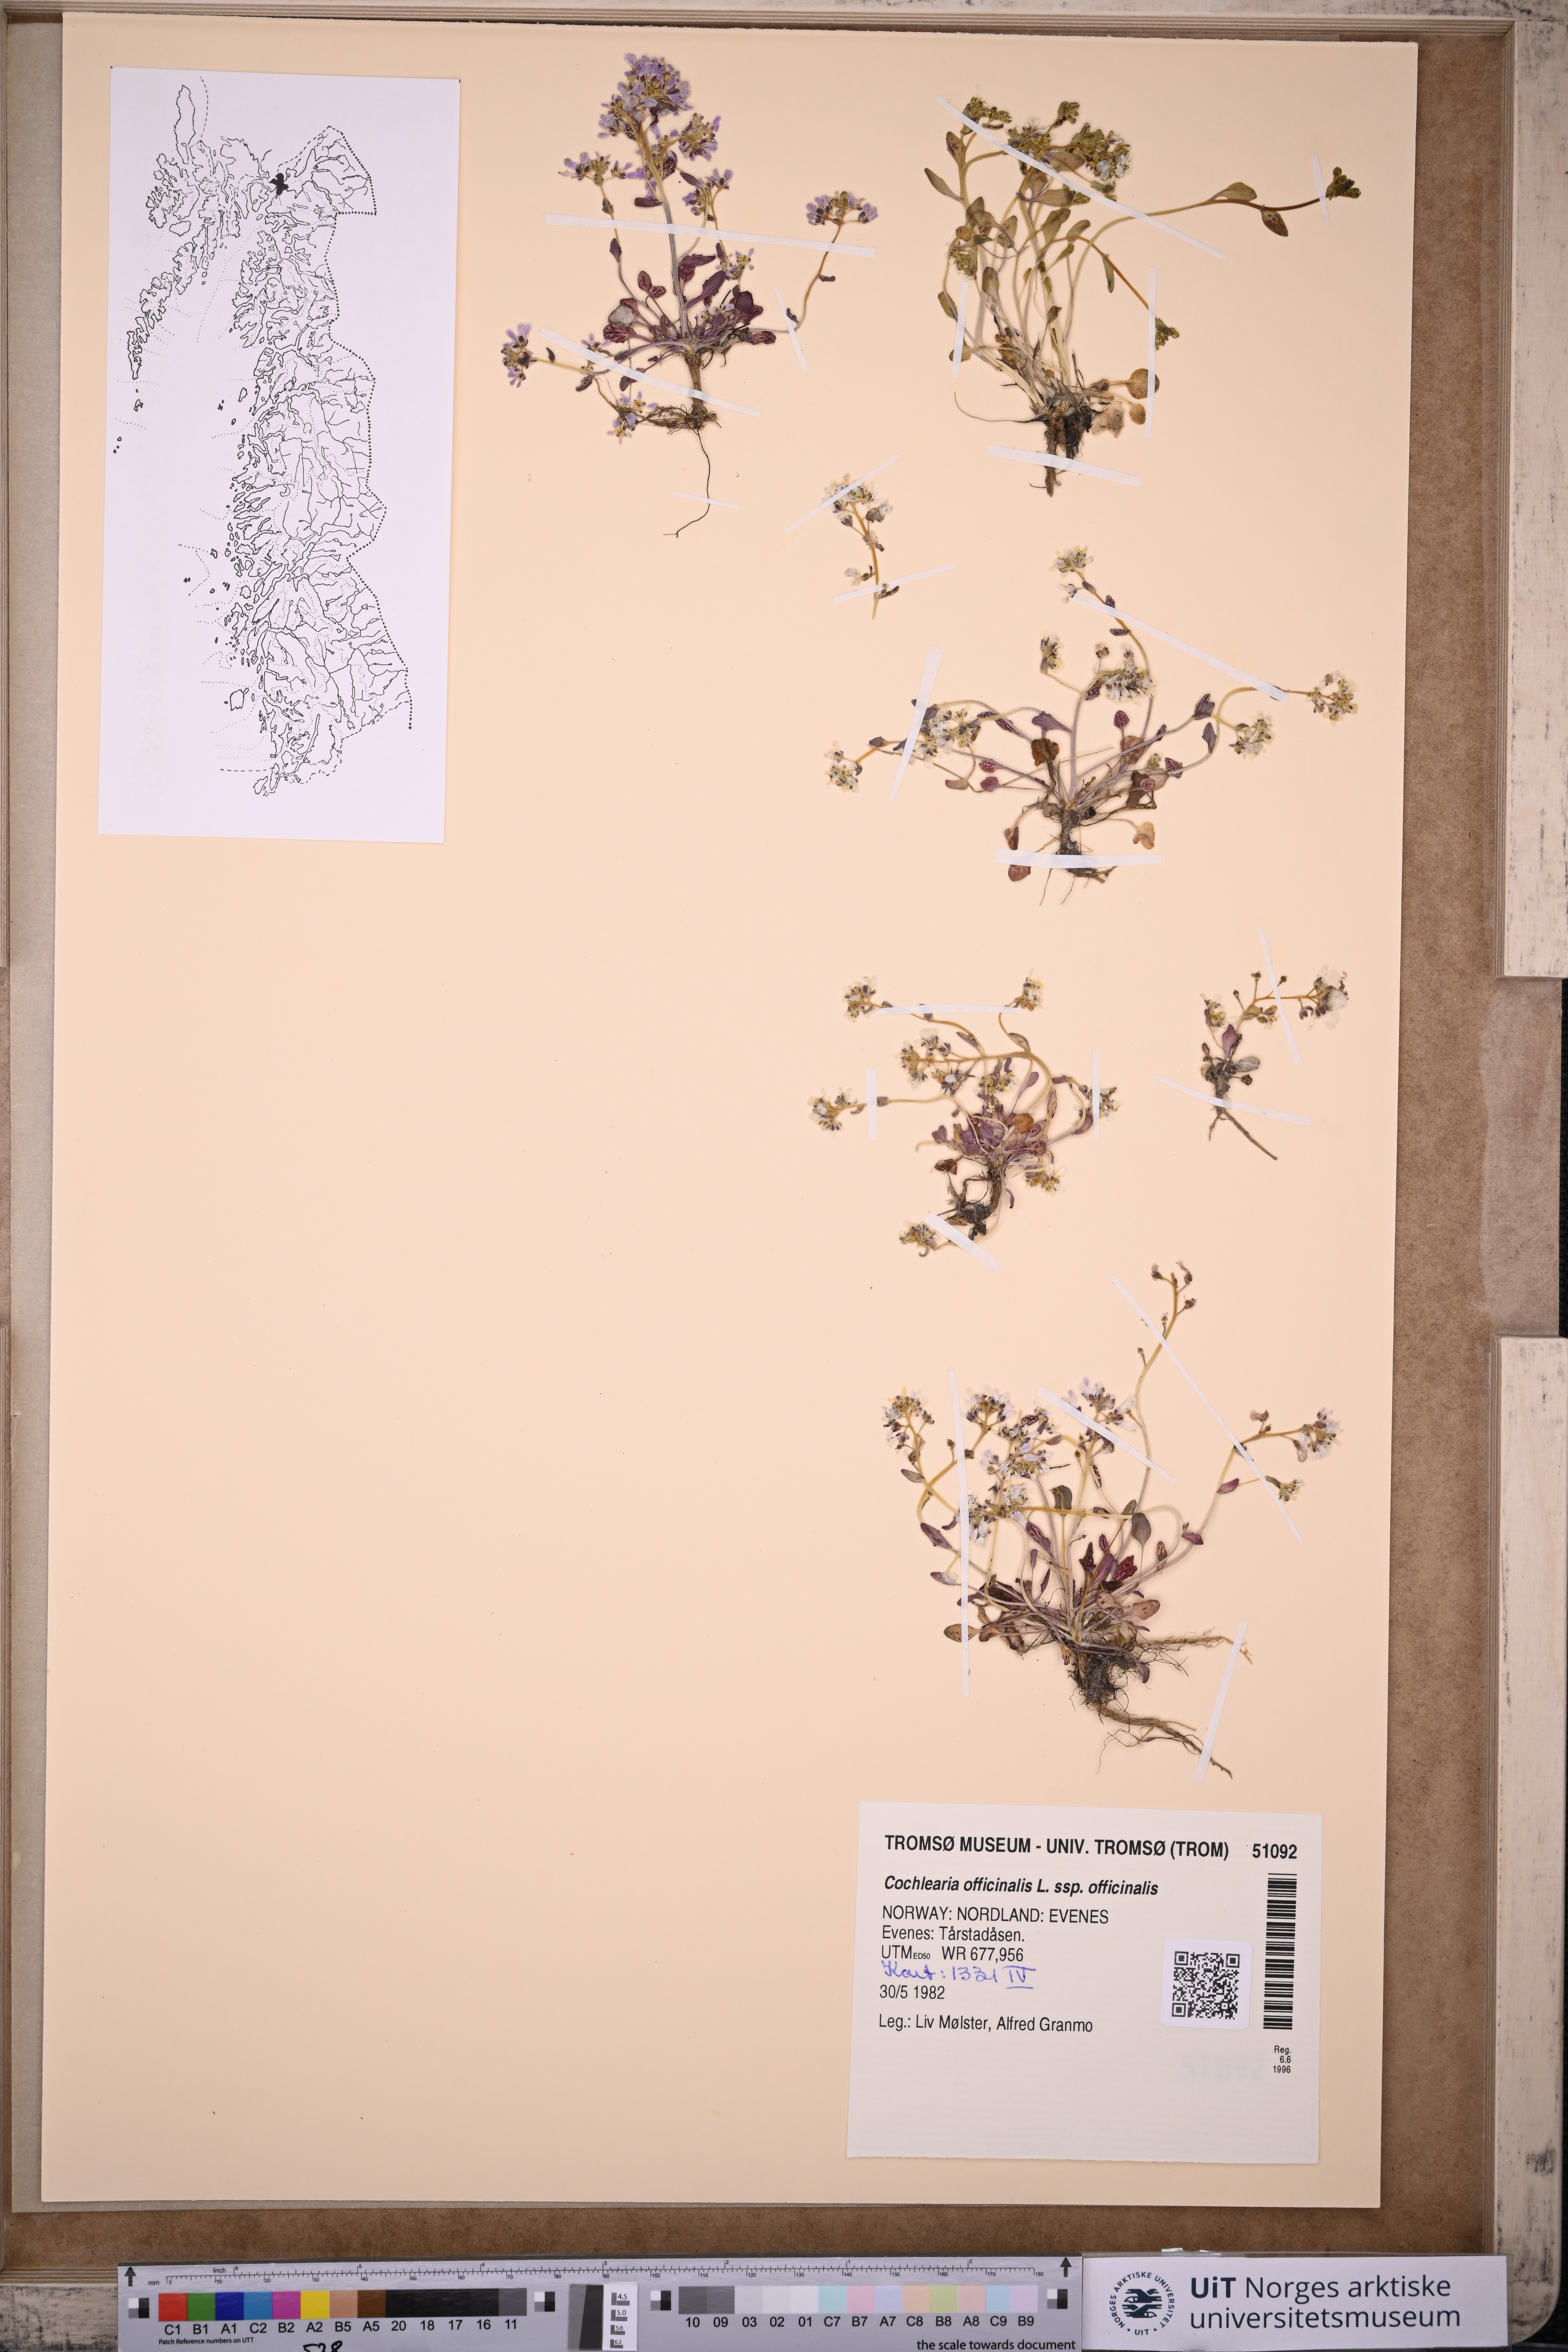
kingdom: Plantae
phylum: Tracheophyta
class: Magnoliopsida
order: Brassicales
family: Brassicaceae
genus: Cochlearia
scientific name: Cochlearia officinalis
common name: Scurvy-grass
